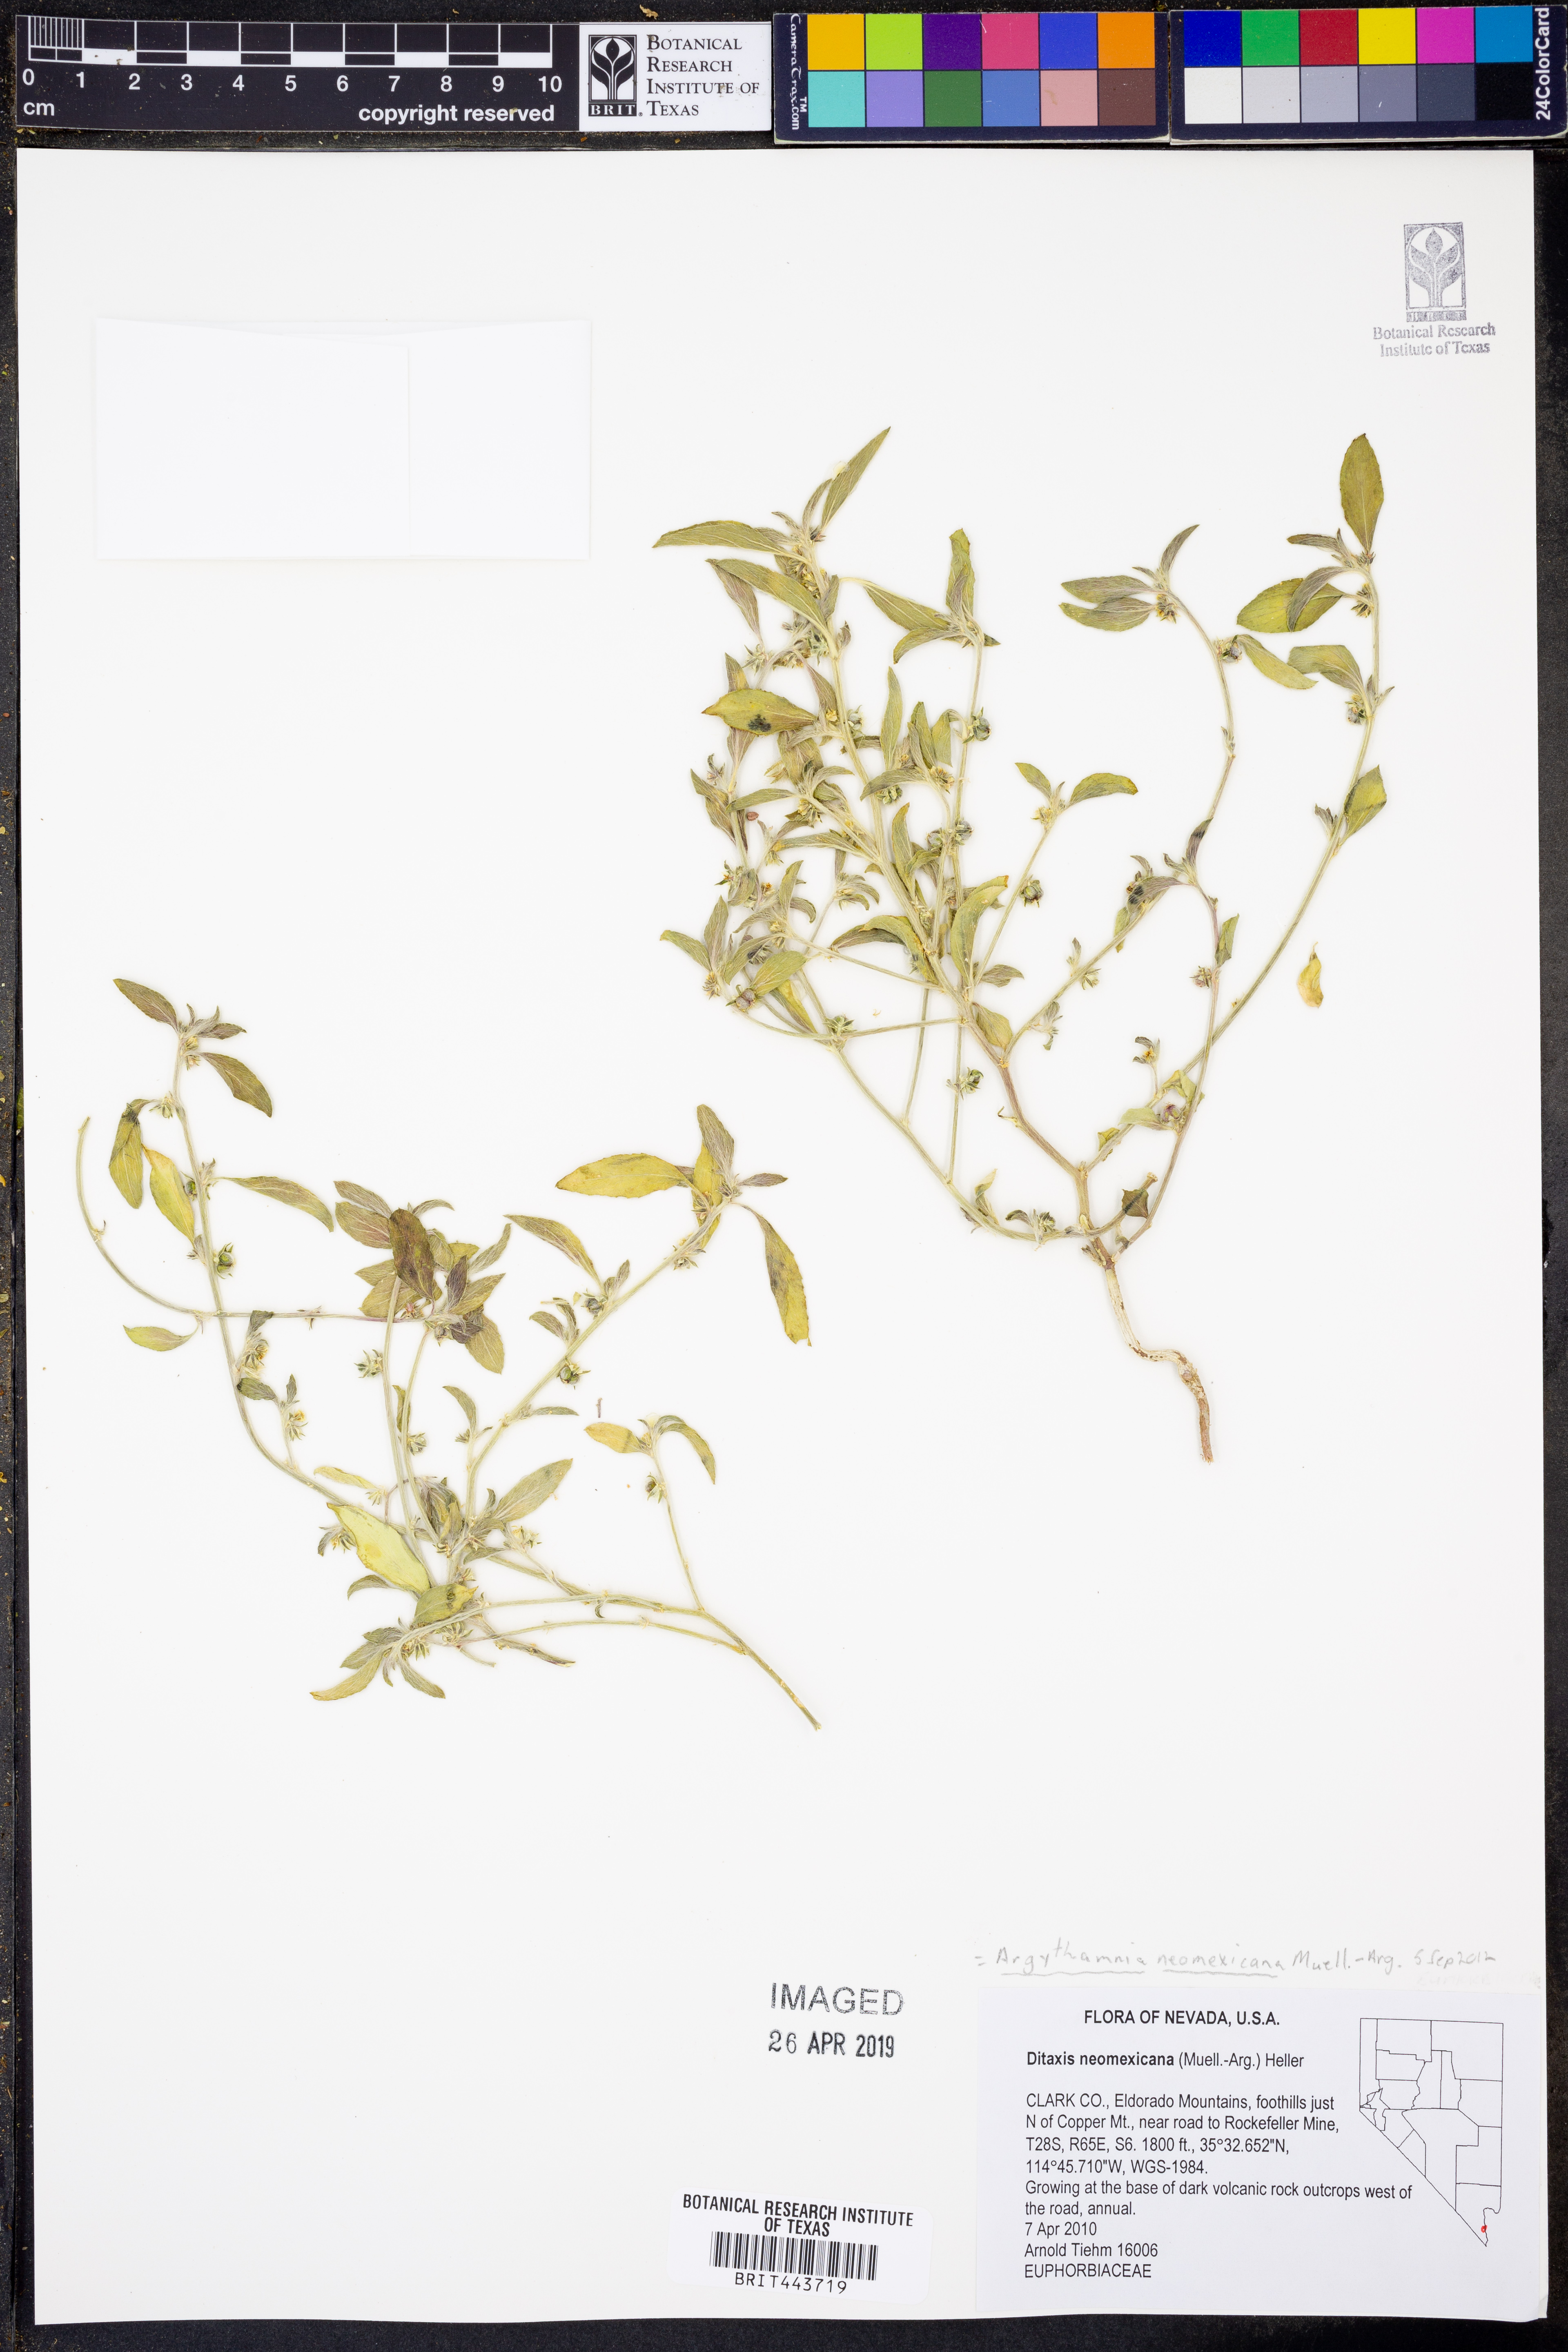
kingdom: Plantae
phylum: Tracheophyta
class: Magnoliopsida
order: Malpighiales
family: Euphorbiaceae
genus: Ditaxis
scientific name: Ditaxis serrata
